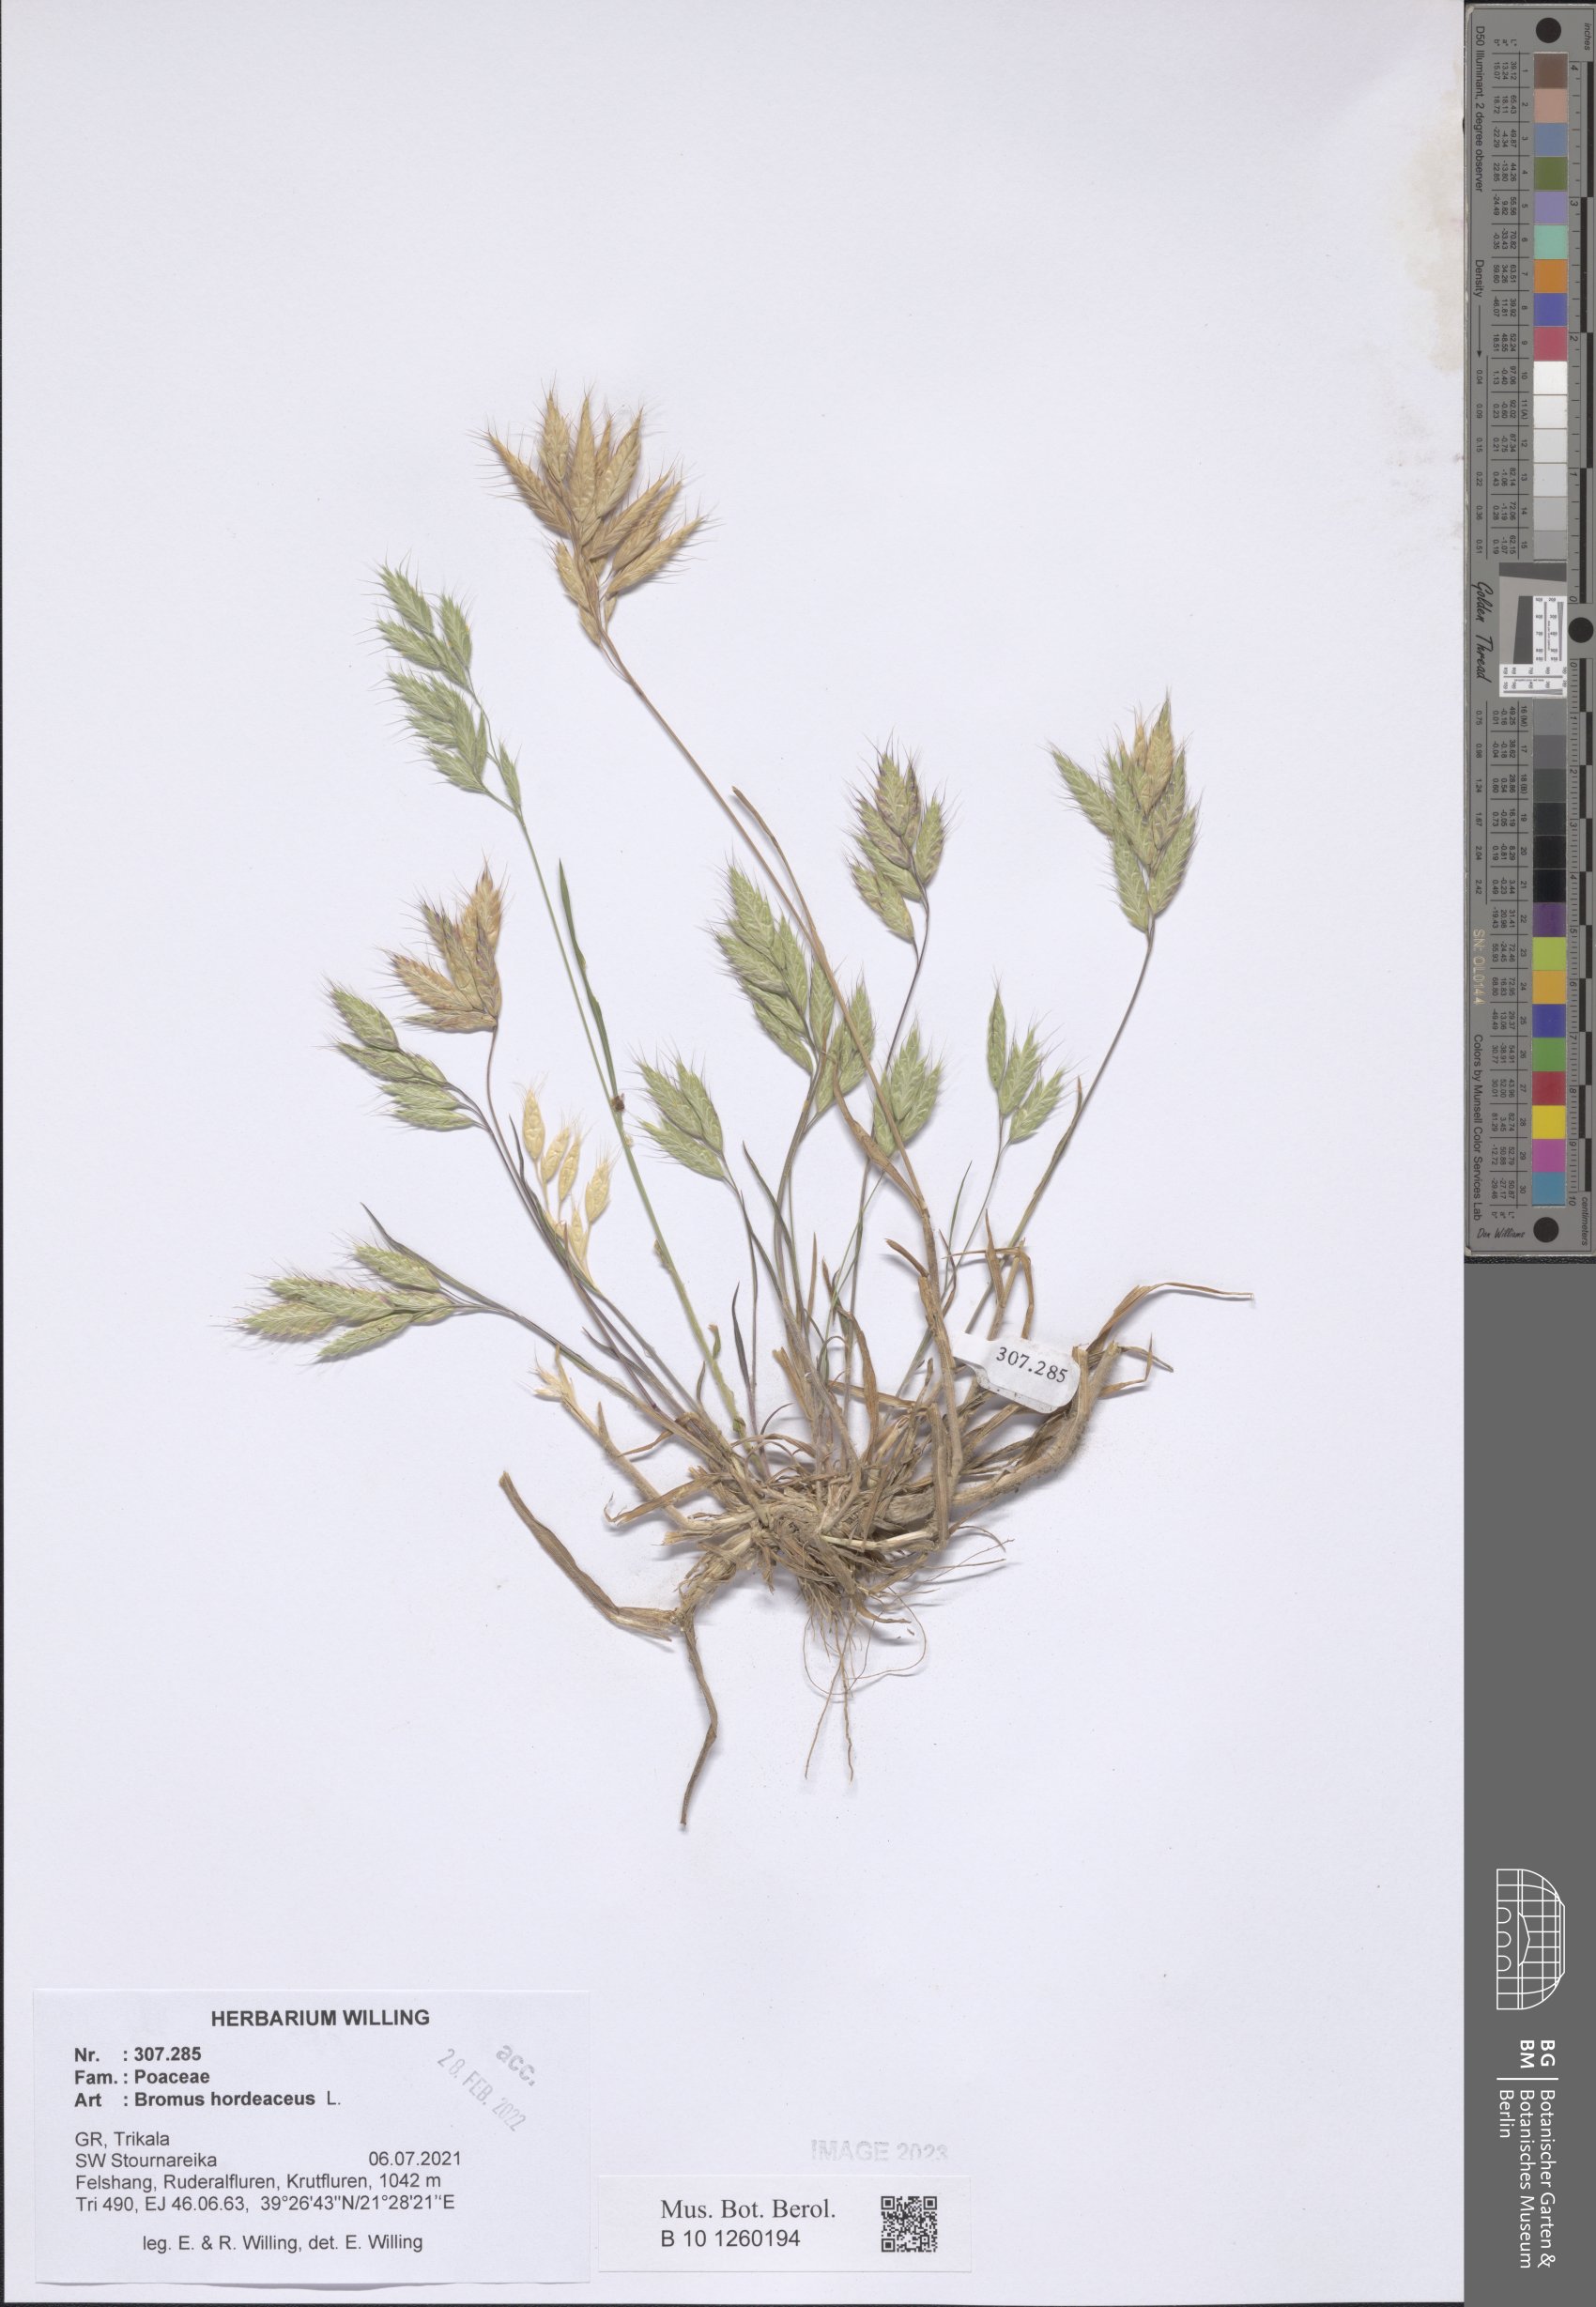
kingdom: Plantae
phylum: Tracheophyta
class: Liliopsida
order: Poales
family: Poaceae
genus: Bromus
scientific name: Bromus hordeaceus
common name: Soft brome
